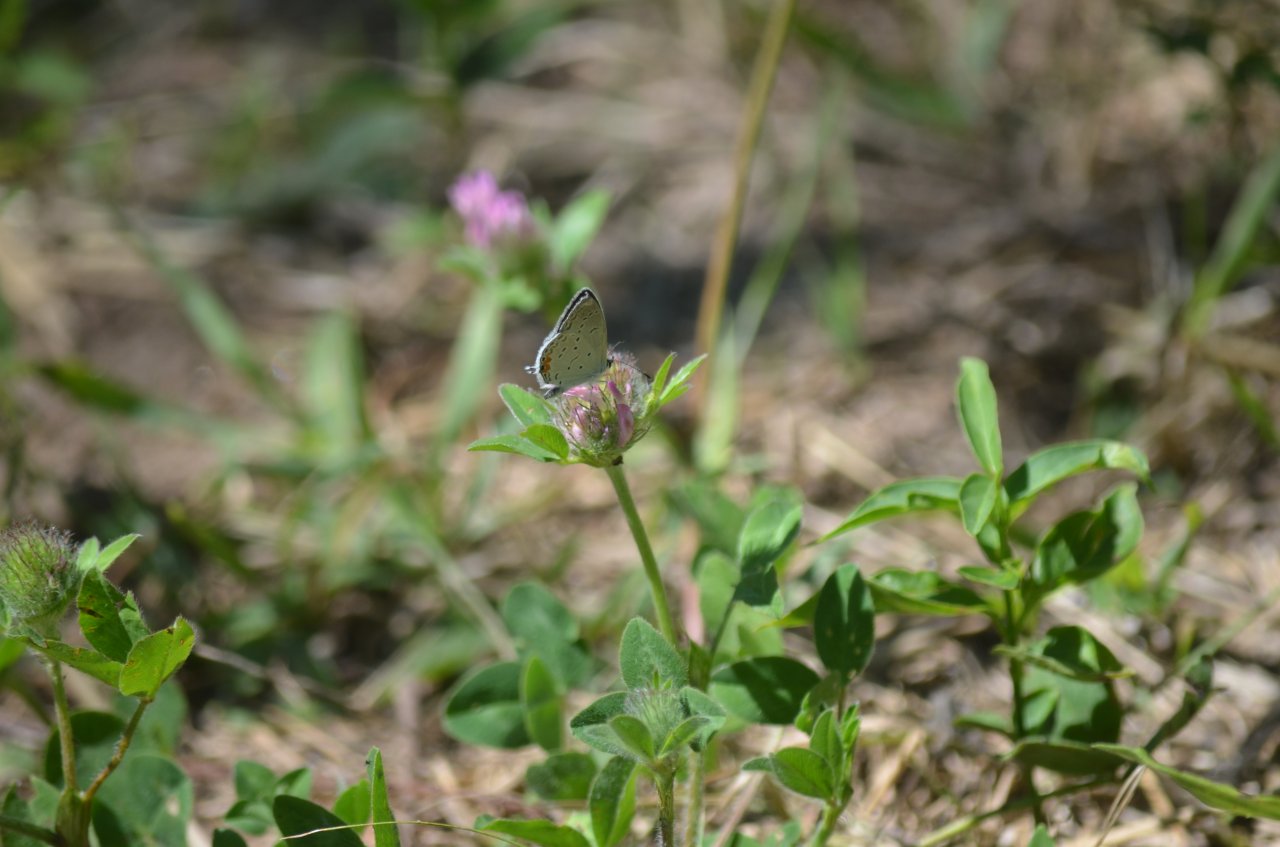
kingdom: Animalia
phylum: Arthropoda
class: Insecta
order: Lepidoptera
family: Lycaenidae
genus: Elkalyce
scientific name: Elkalyce comyntas
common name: Eastern Tailed-Blue
